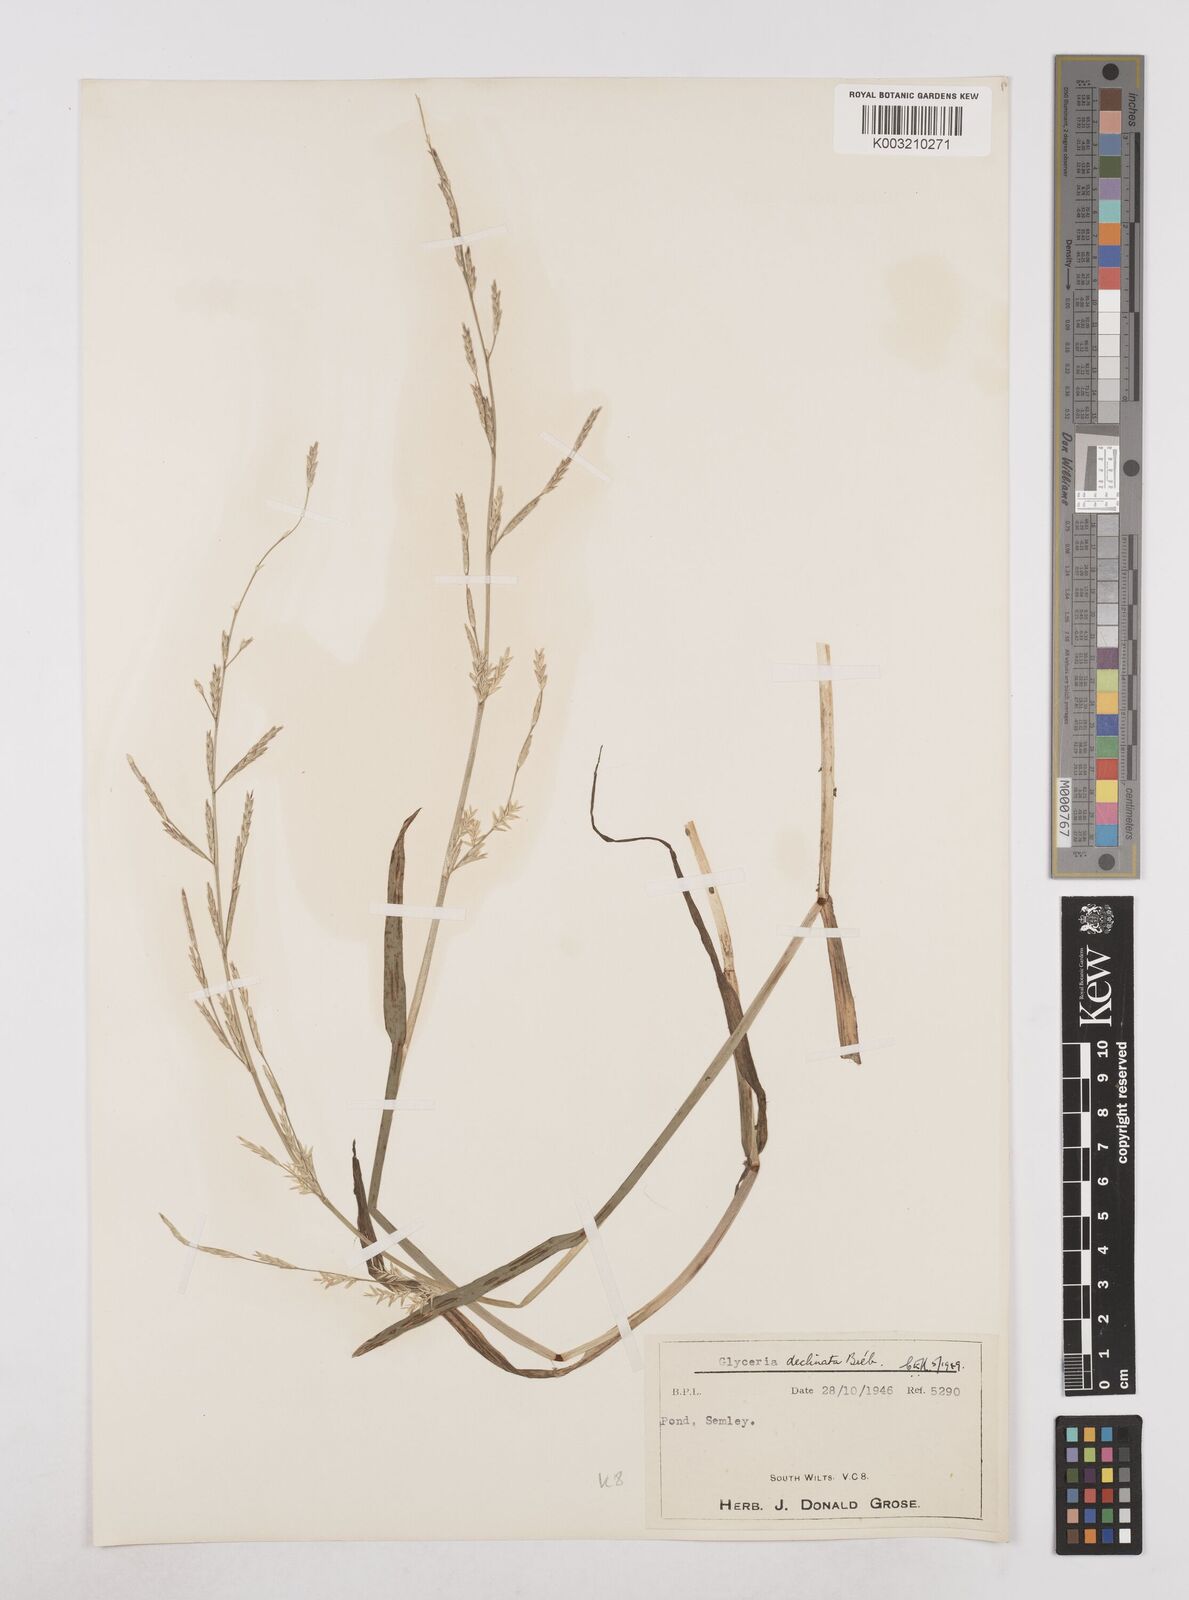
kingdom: Plantae
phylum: Tracheophyta
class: Liliopsida
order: Poales
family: Poaceae
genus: Glyceria
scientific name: Glyceria declinata
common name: Small sweet-grass
